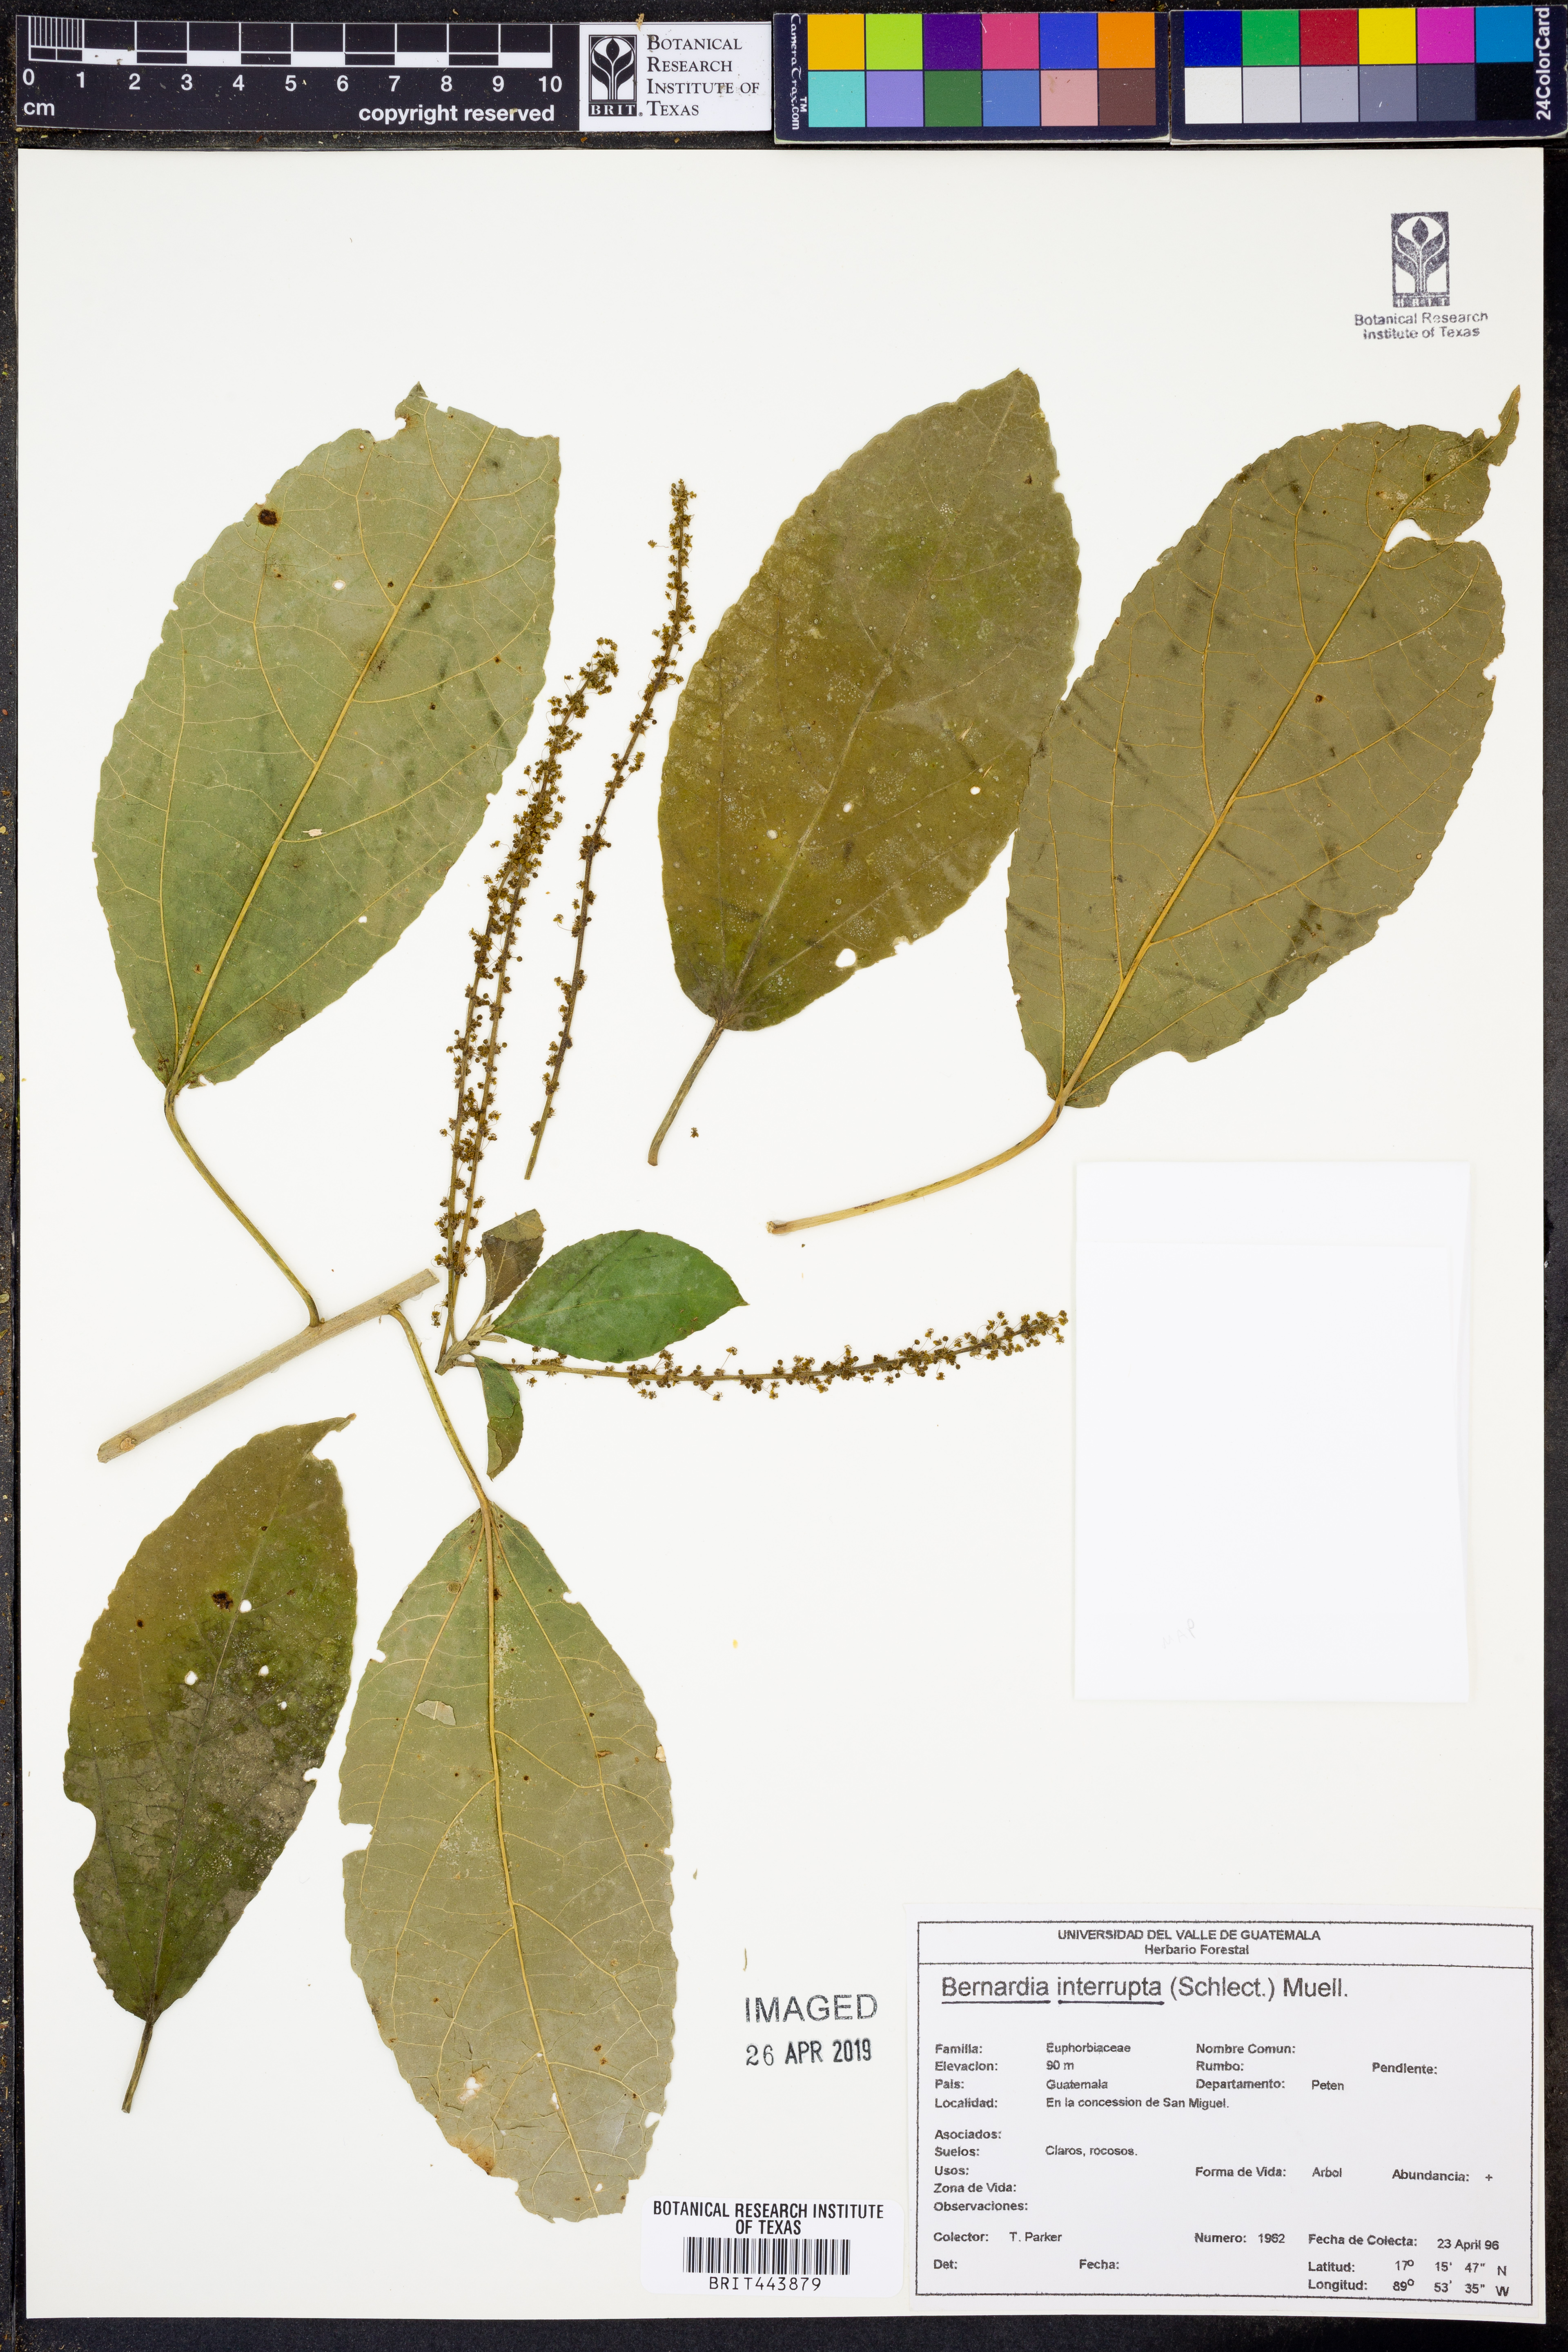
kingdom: Plantae
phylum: Tracheophyta
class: Magnoliopsida
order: Malpighiales
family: Euphorbiaceae
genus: Bernardia
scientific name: Bernardia dodecandra
